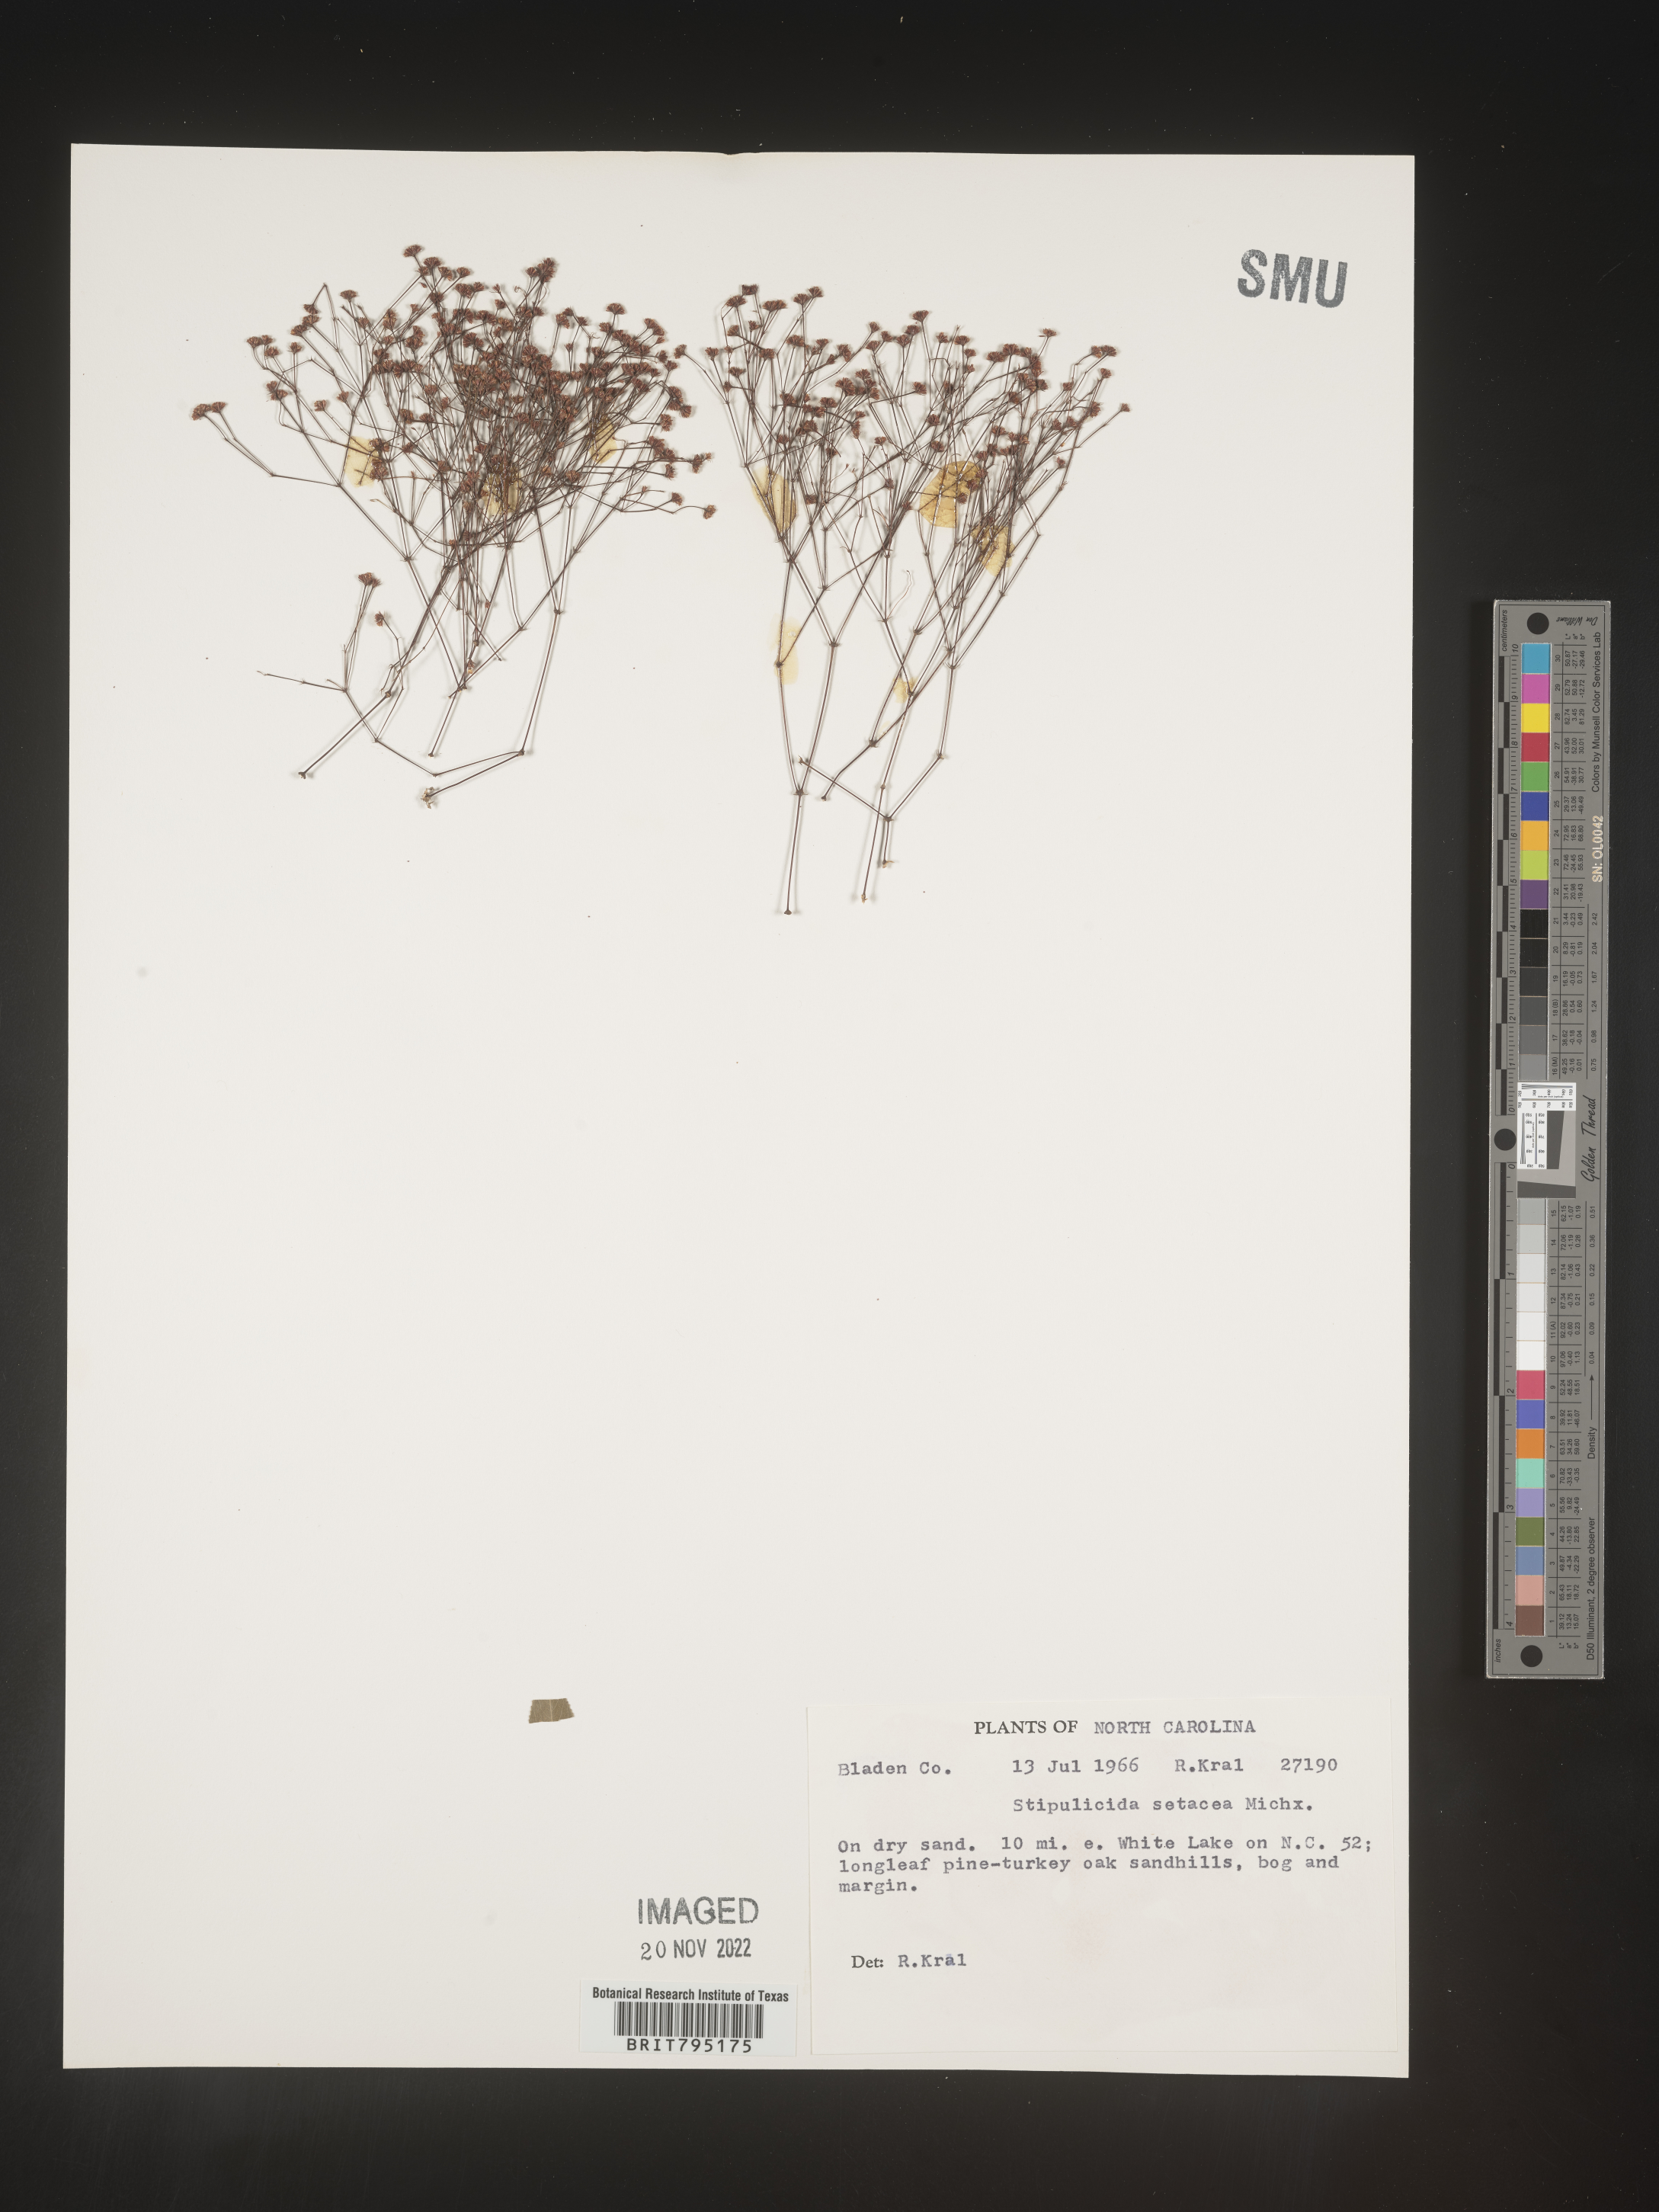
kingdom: Plantae
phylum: Tracheophyta
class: Magnoliopsida
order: Caryophyllales
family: Caryophyllaceae
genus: Stipulicida
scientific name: Stipulicida
